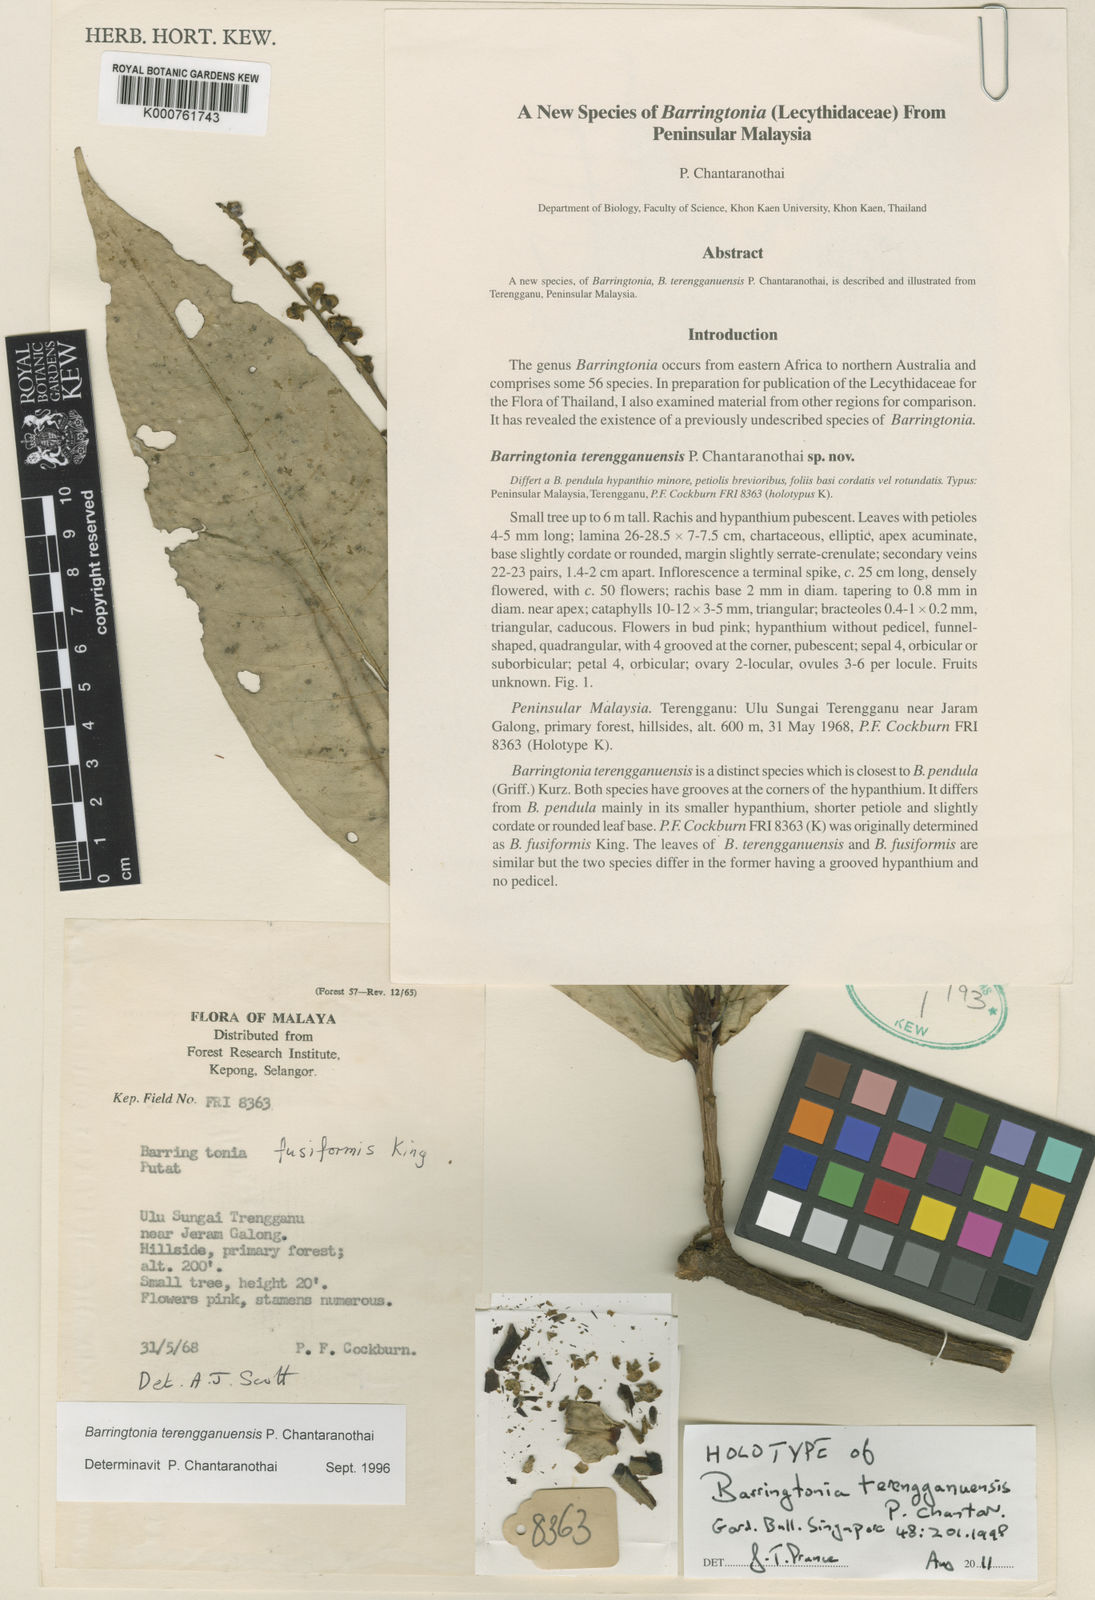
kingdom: Plantae
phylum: Tracheophyta
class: Magnoliopsida
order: Ericales
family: Lecythidaceae
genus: Barringtonia
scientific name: Barringtonia terengganuensis
